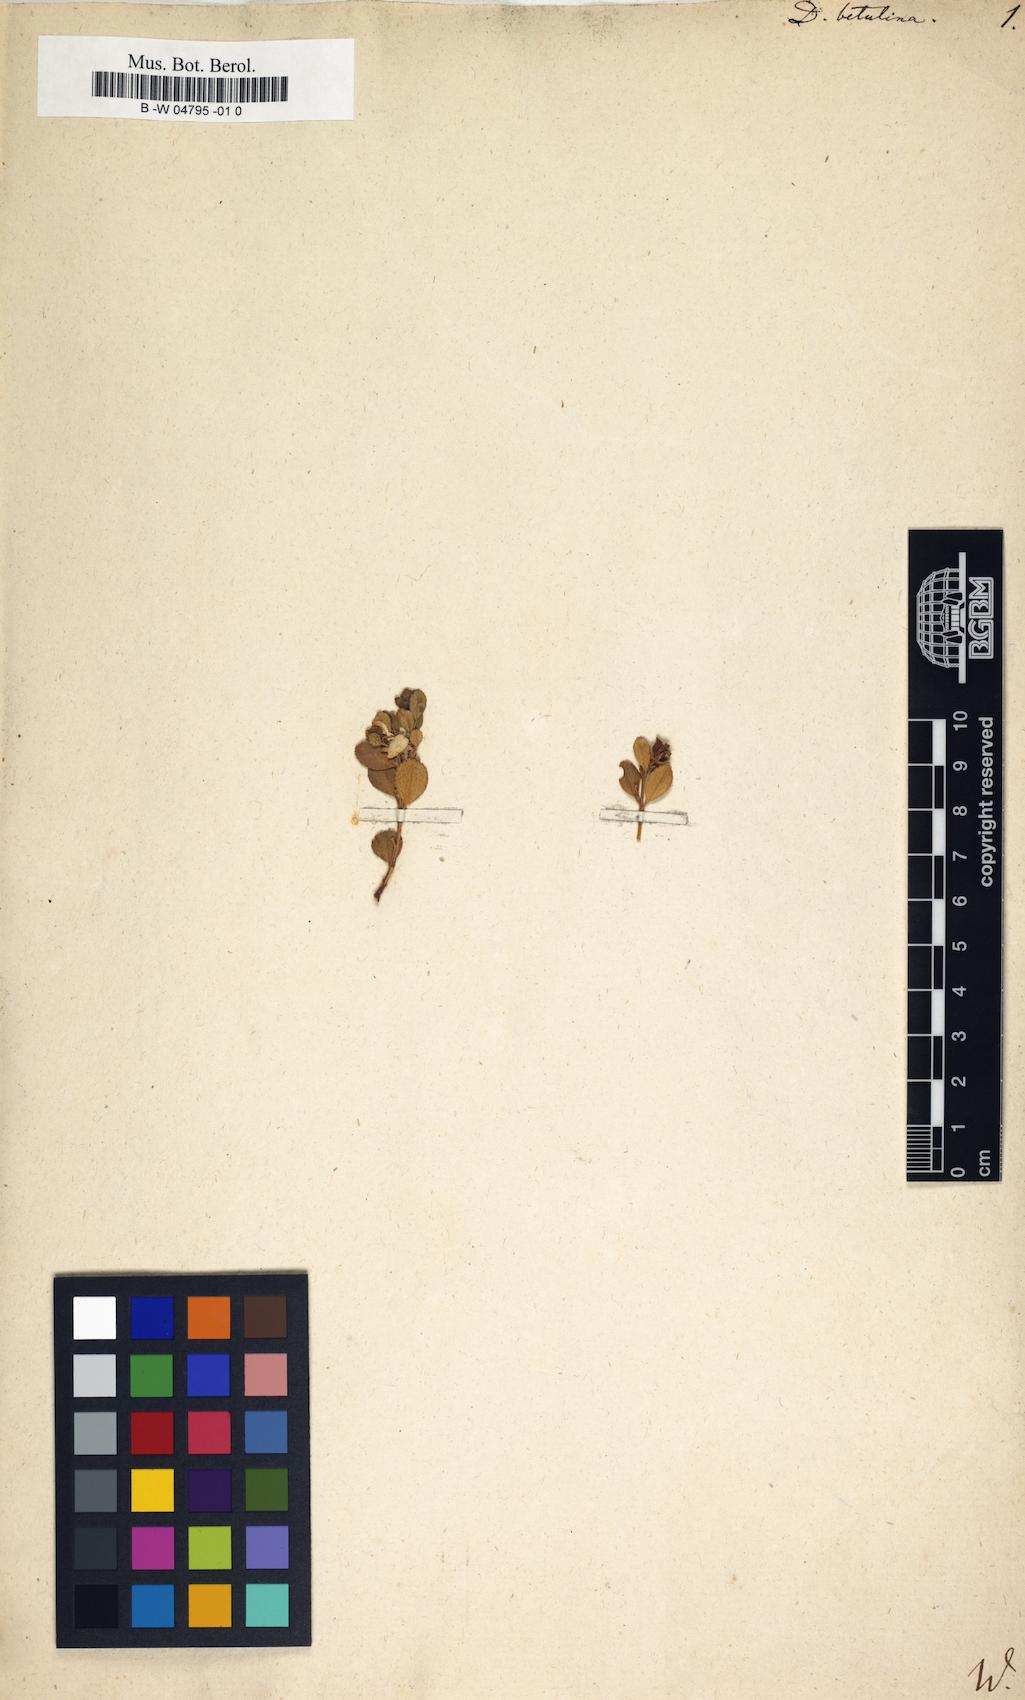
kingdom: Plantae
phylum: Tracheophyta
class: Magnoliopsida
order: Sapindales
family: Rutaceae
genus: Agathosma
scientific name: Agathosma
